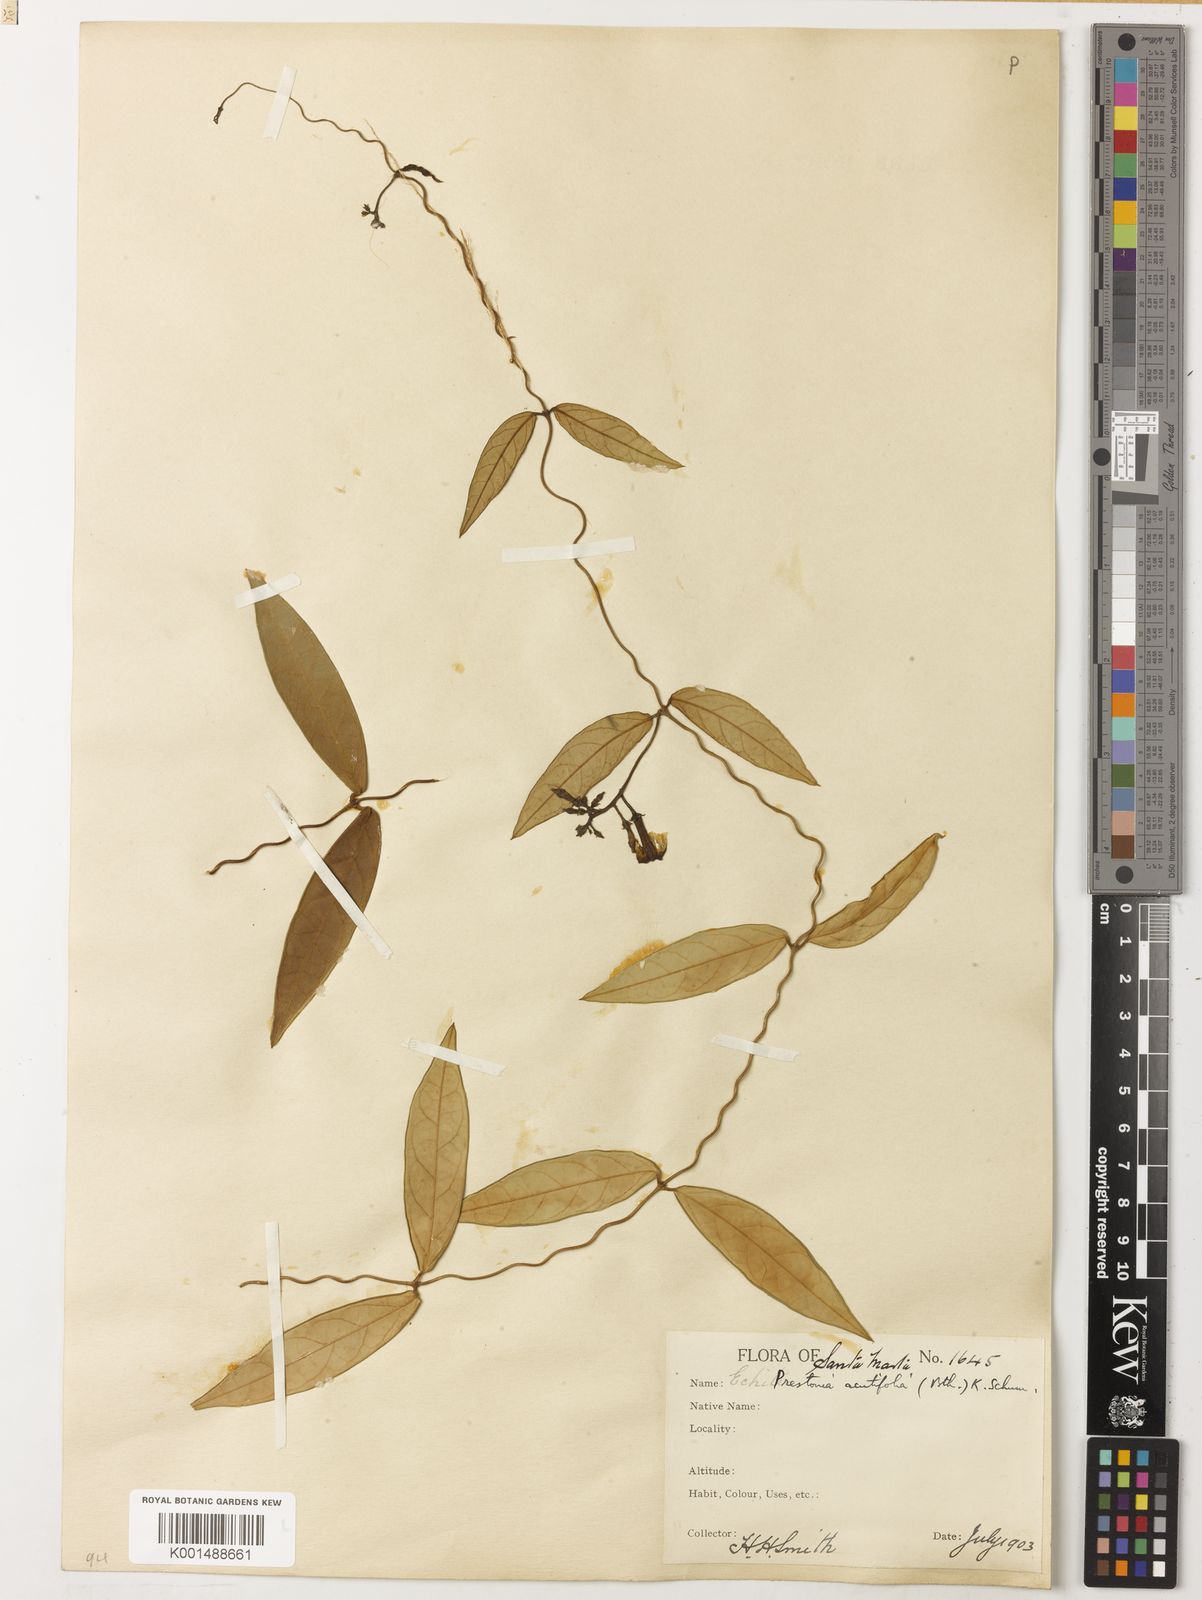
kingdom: Plantae
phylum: Tracheophyta
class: Magnoliopsida
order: Gentianales
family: Apocynaceae
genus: Prestonia
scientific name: Prestonia quinquangularis
